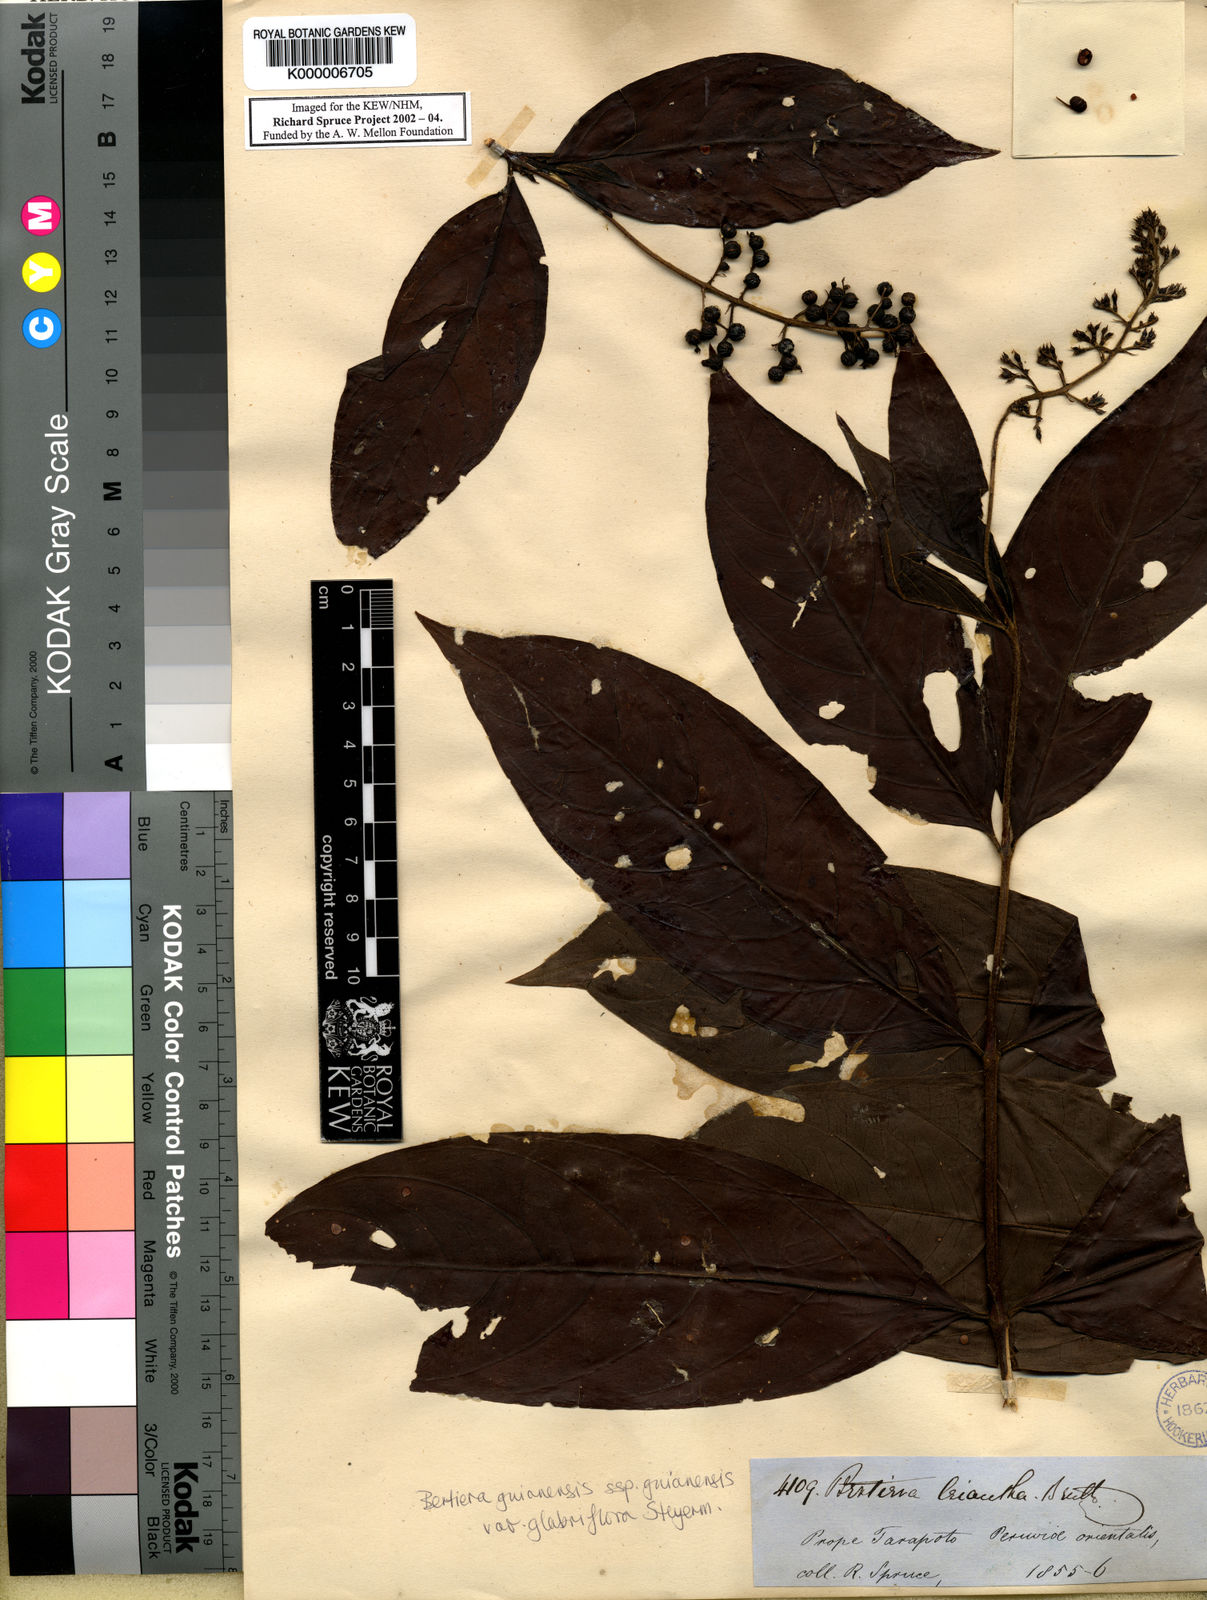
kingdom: Plantae
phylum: Tracheophyta
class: Magnoliopsida
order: Gentianales
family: Rubiaceae
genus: Bertiera
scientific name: Bertiera guianensis
